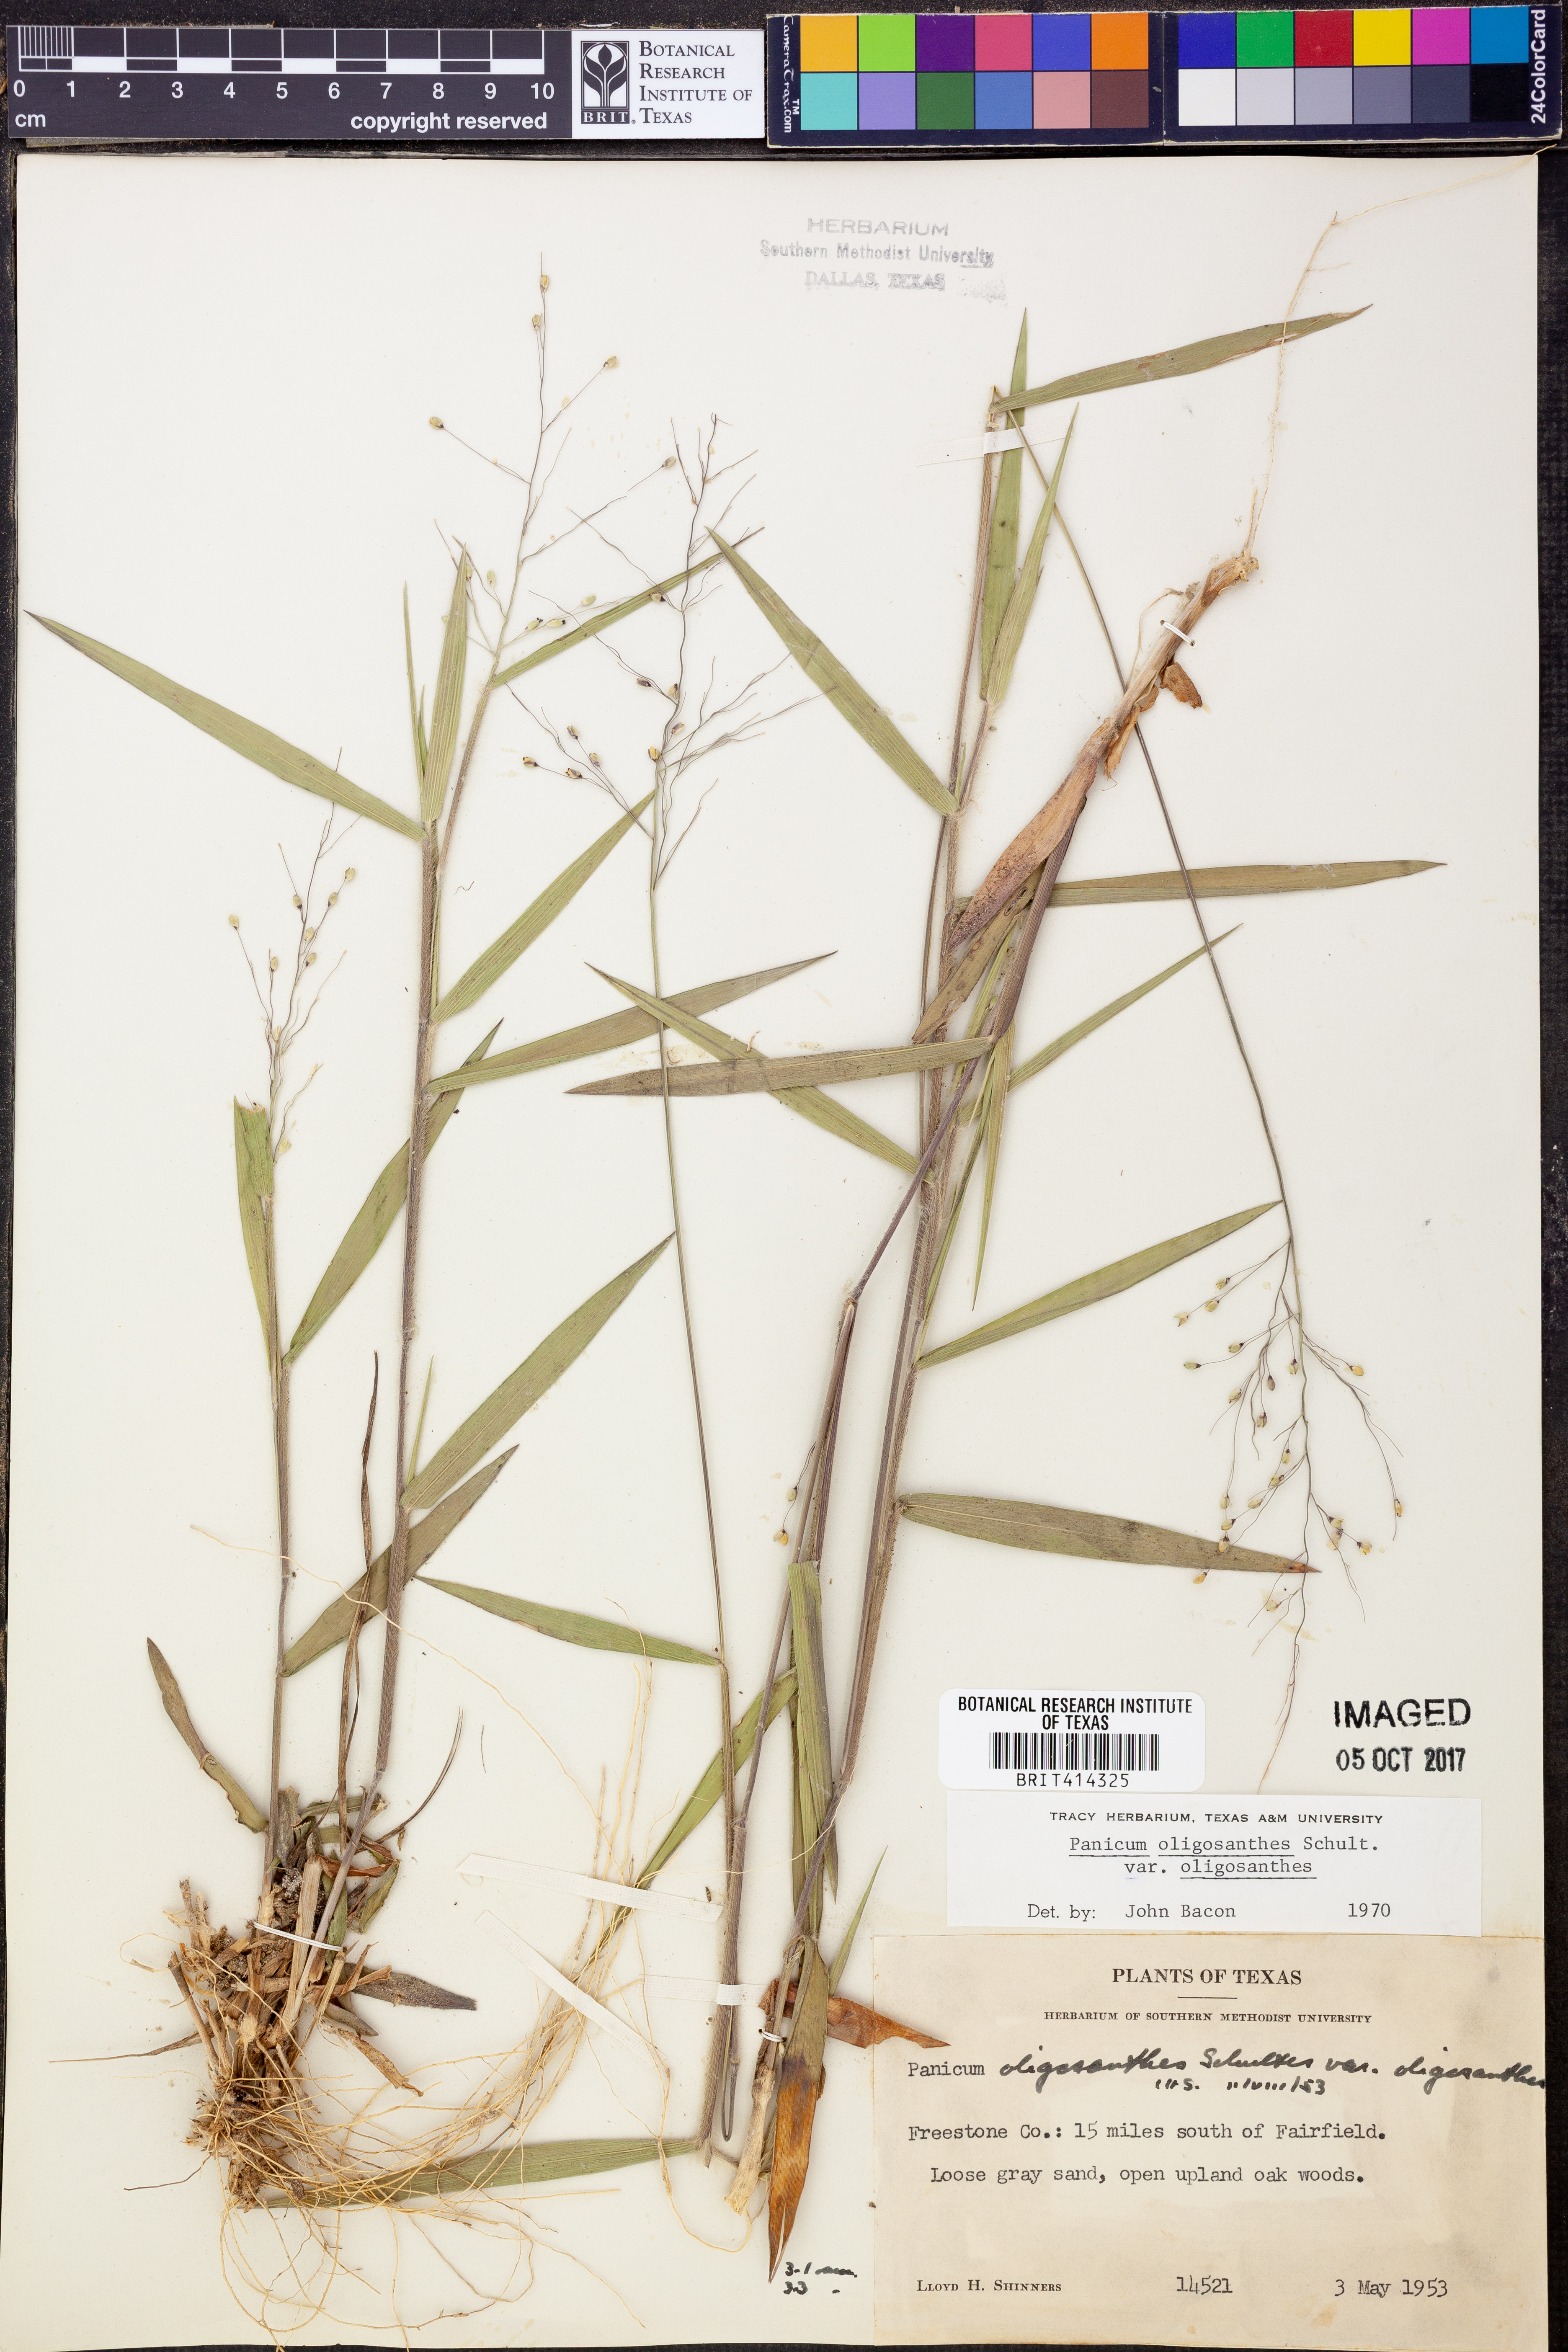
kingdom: Plantae
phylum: Tracheophyta
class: Liliopsida
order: Poales
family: Poaceae
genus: Dichanthelium
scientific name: Dichanthelium oligosanthes
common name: Few-anther obscuregrass
